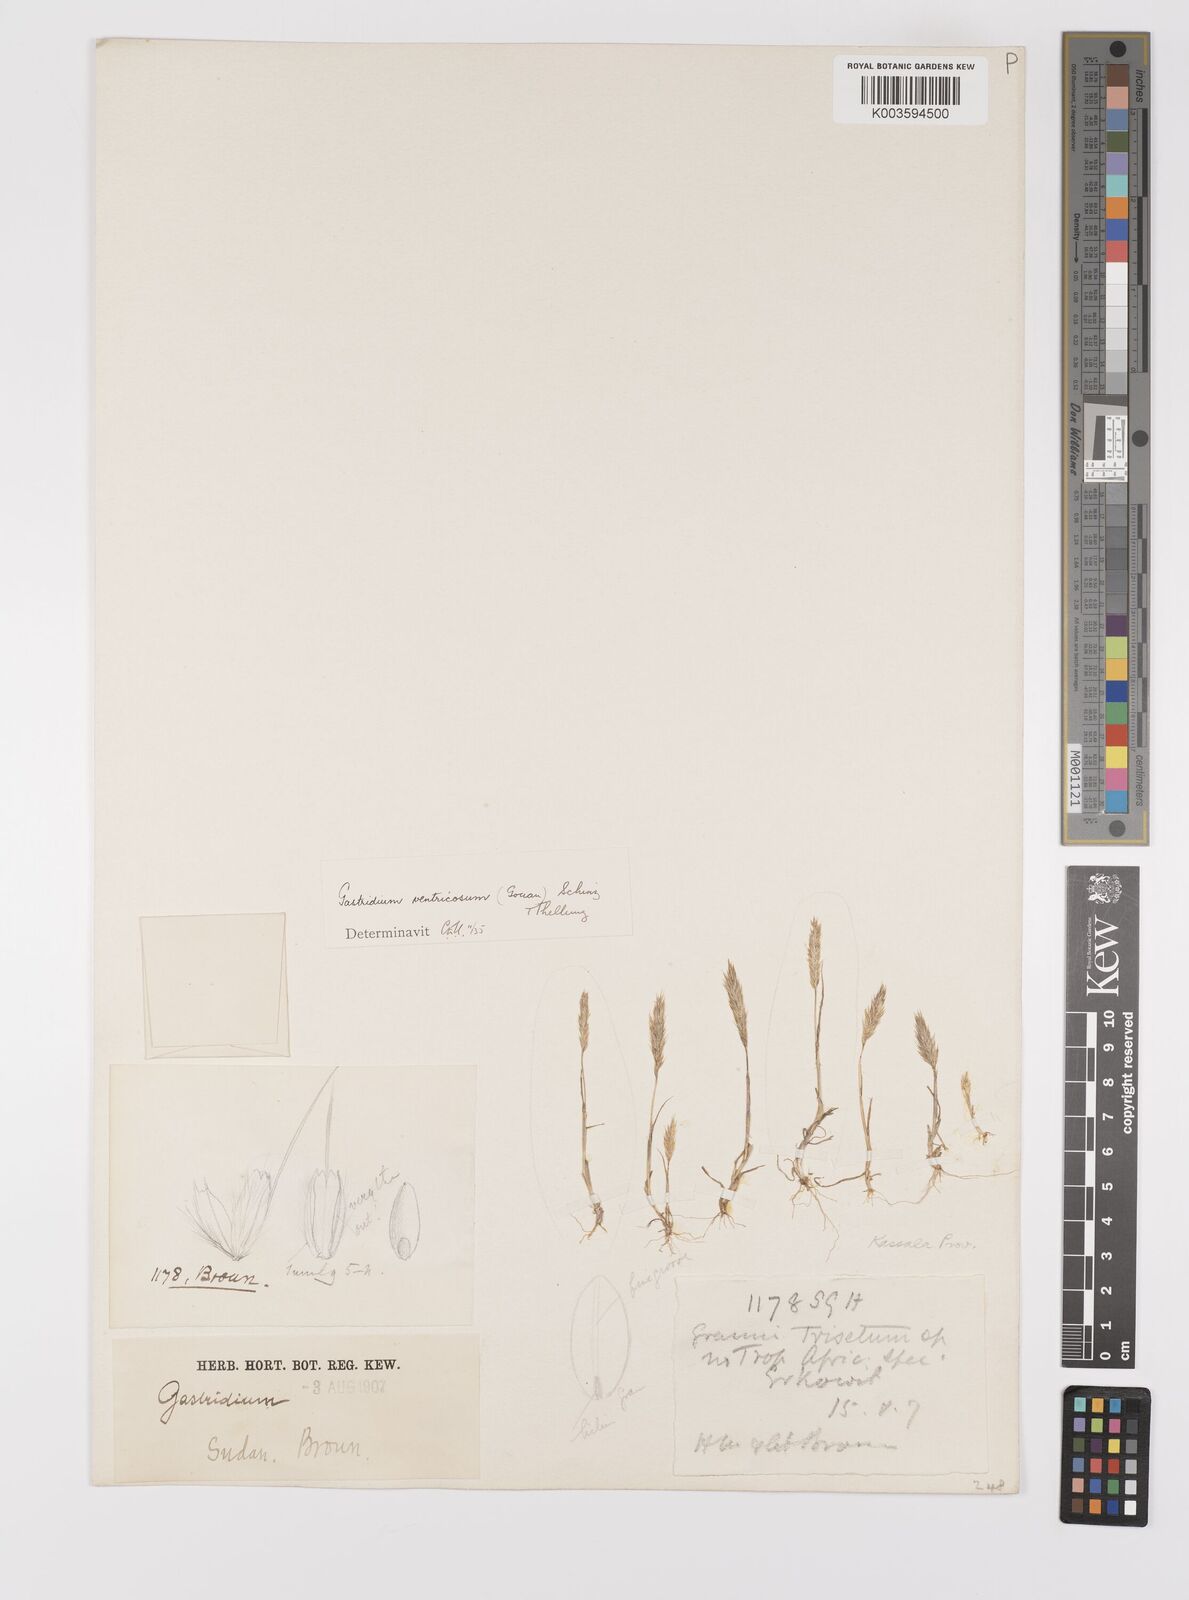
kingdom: Plantae
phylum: Tracheophyta
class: Liliopsida
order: Poales
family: Poaceae
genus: Gastridium
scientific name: Gastridium phleoides
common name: Nit grass
